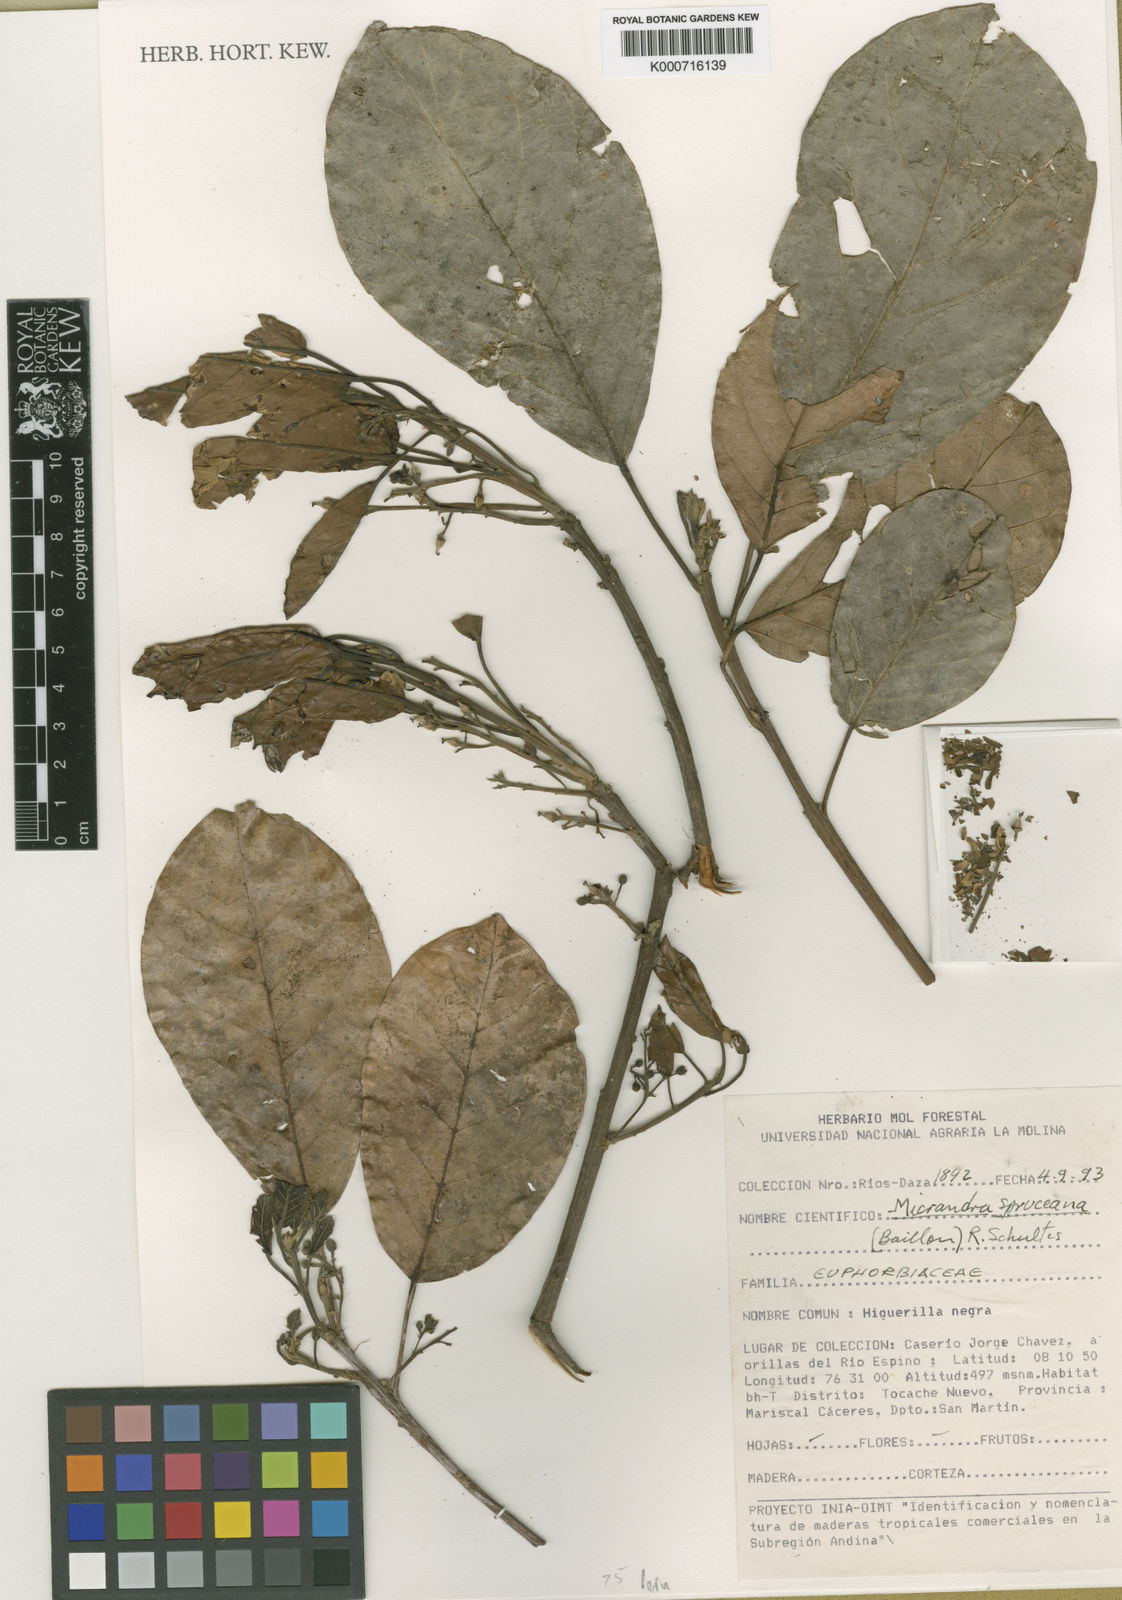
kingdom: Plantae
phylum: Tracheophyta
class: Magnoliopsida
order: Malpighiales
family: Euphorbiaceae
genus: Micrandra
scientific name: Micrandra spruceana
